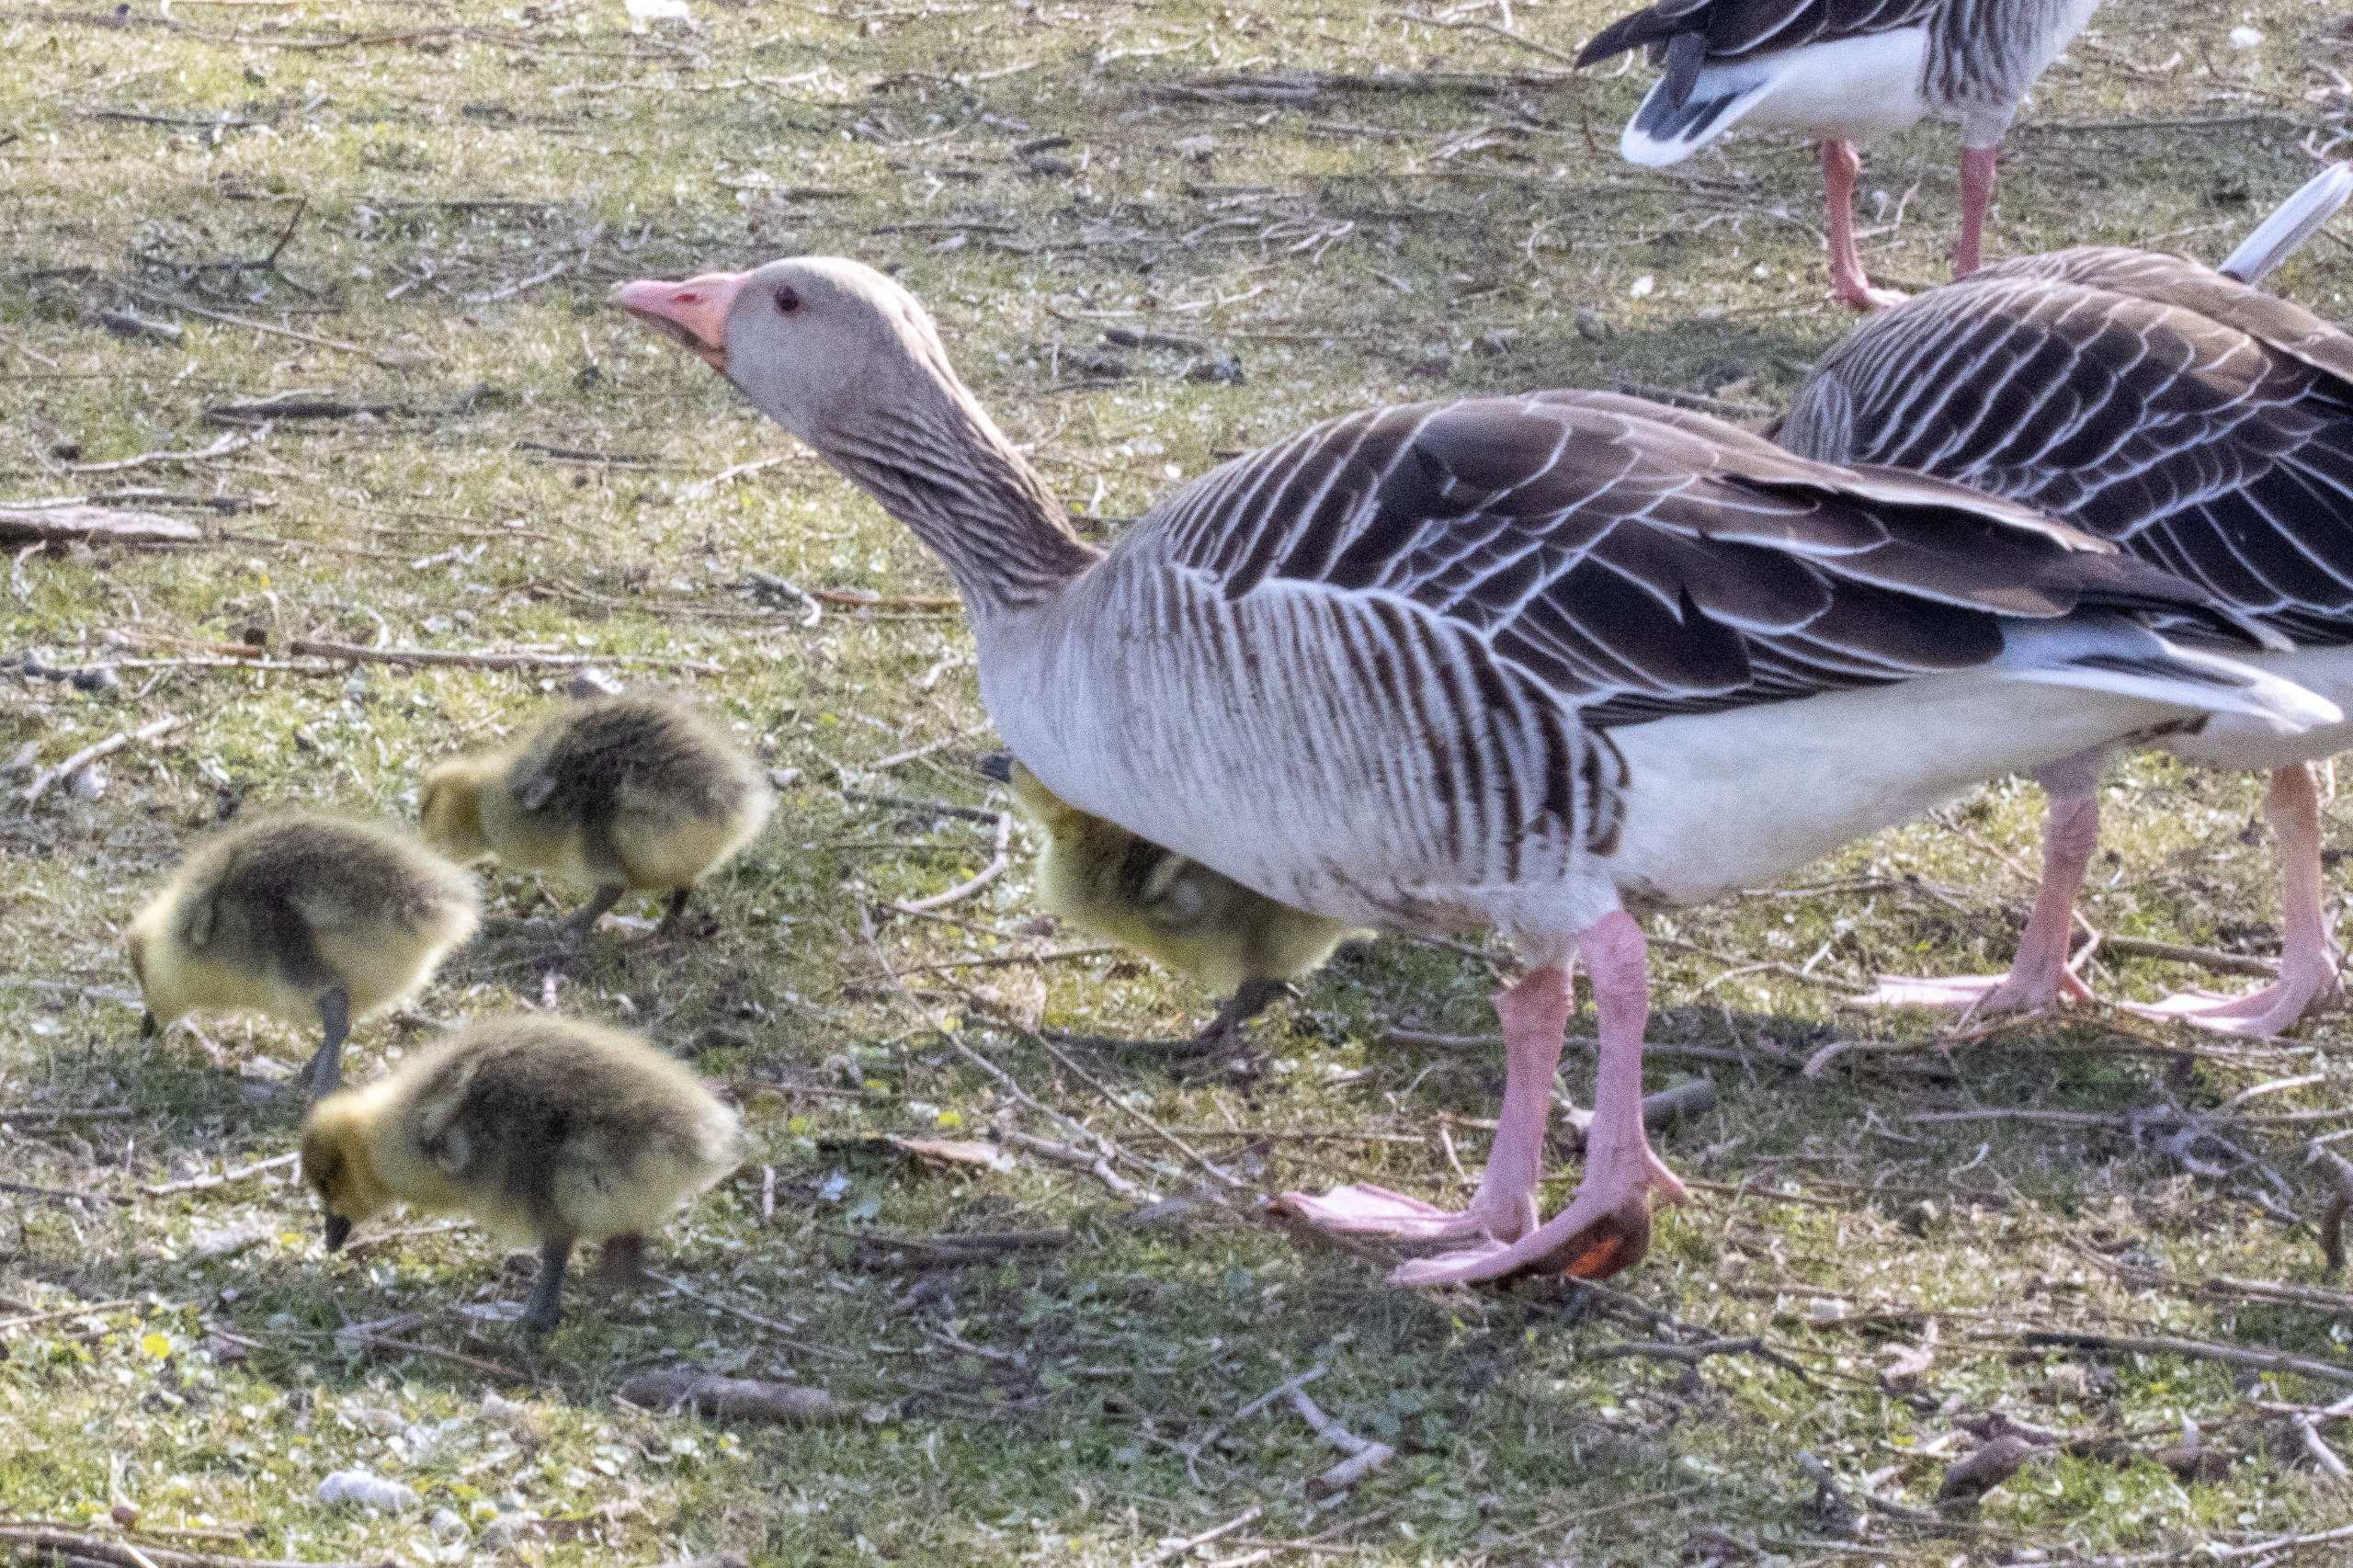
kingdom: Animalia
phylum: Chordata
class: Aves
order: Anseriformes
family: Anatidae
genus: Anser
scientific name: Anser anser
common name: Grågås
